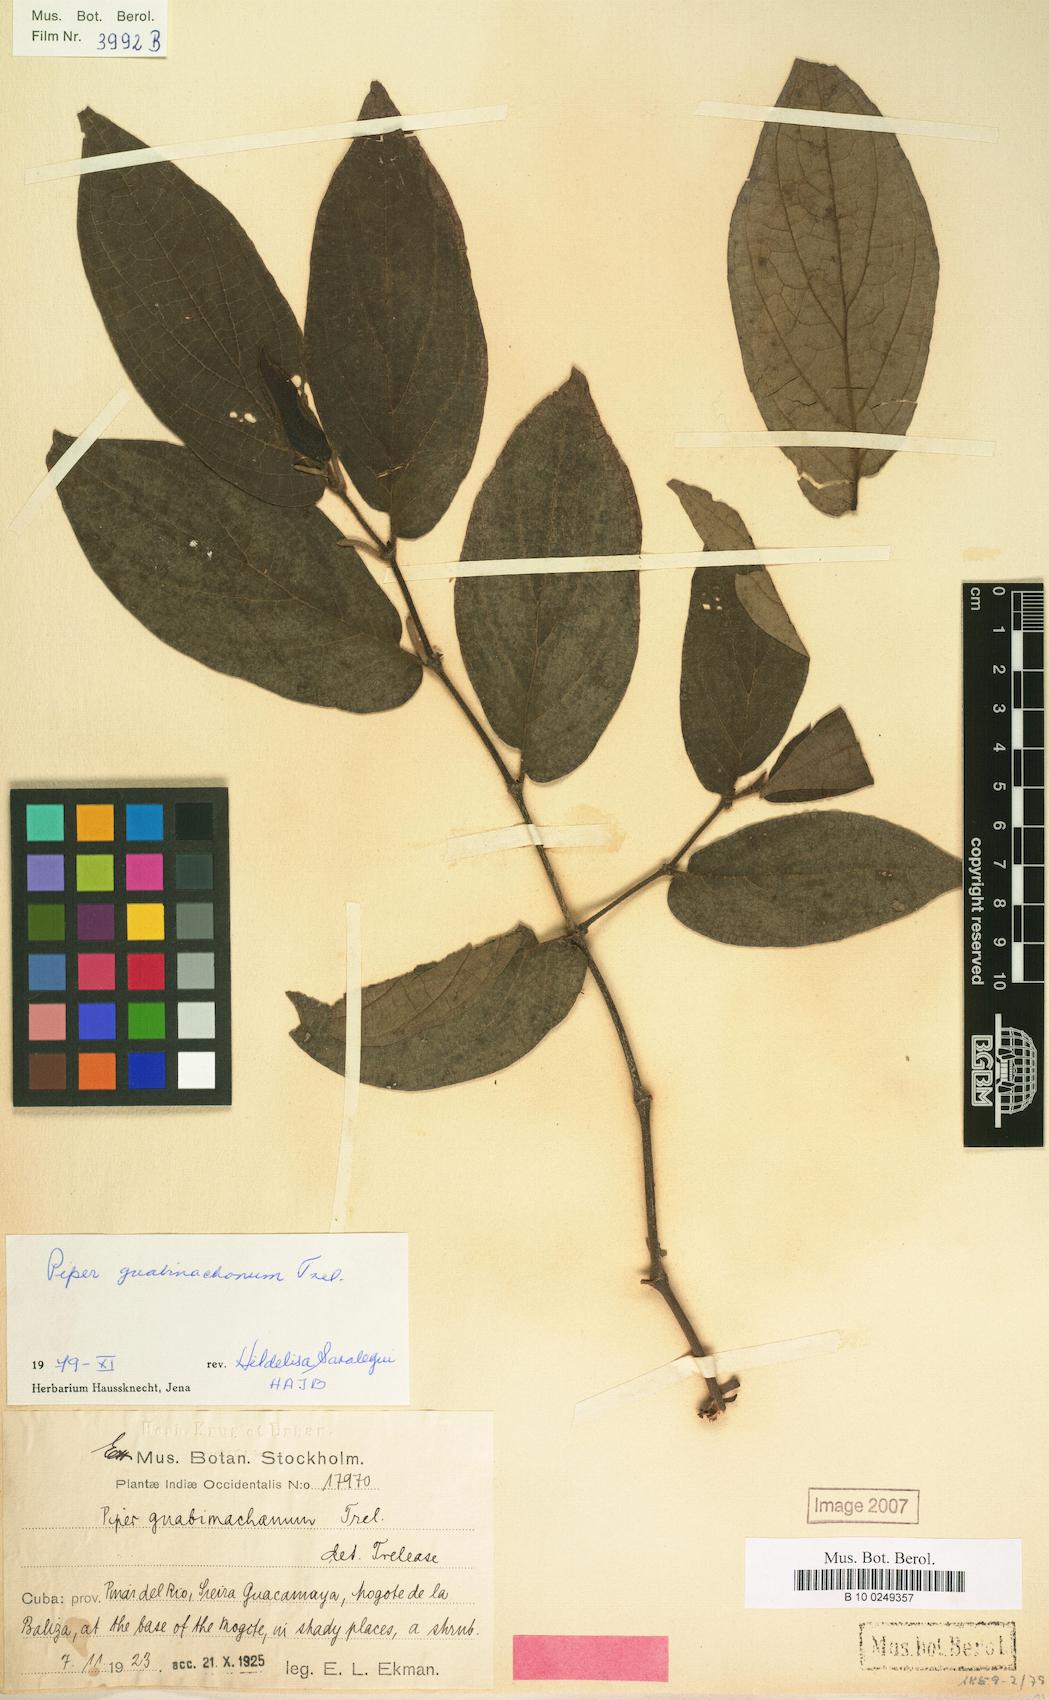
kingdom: Plantae
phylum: Tracheophyta
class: Magnoliopsida
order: Piperales
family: Piperaceae
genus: Piper
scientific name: Piper confusum
